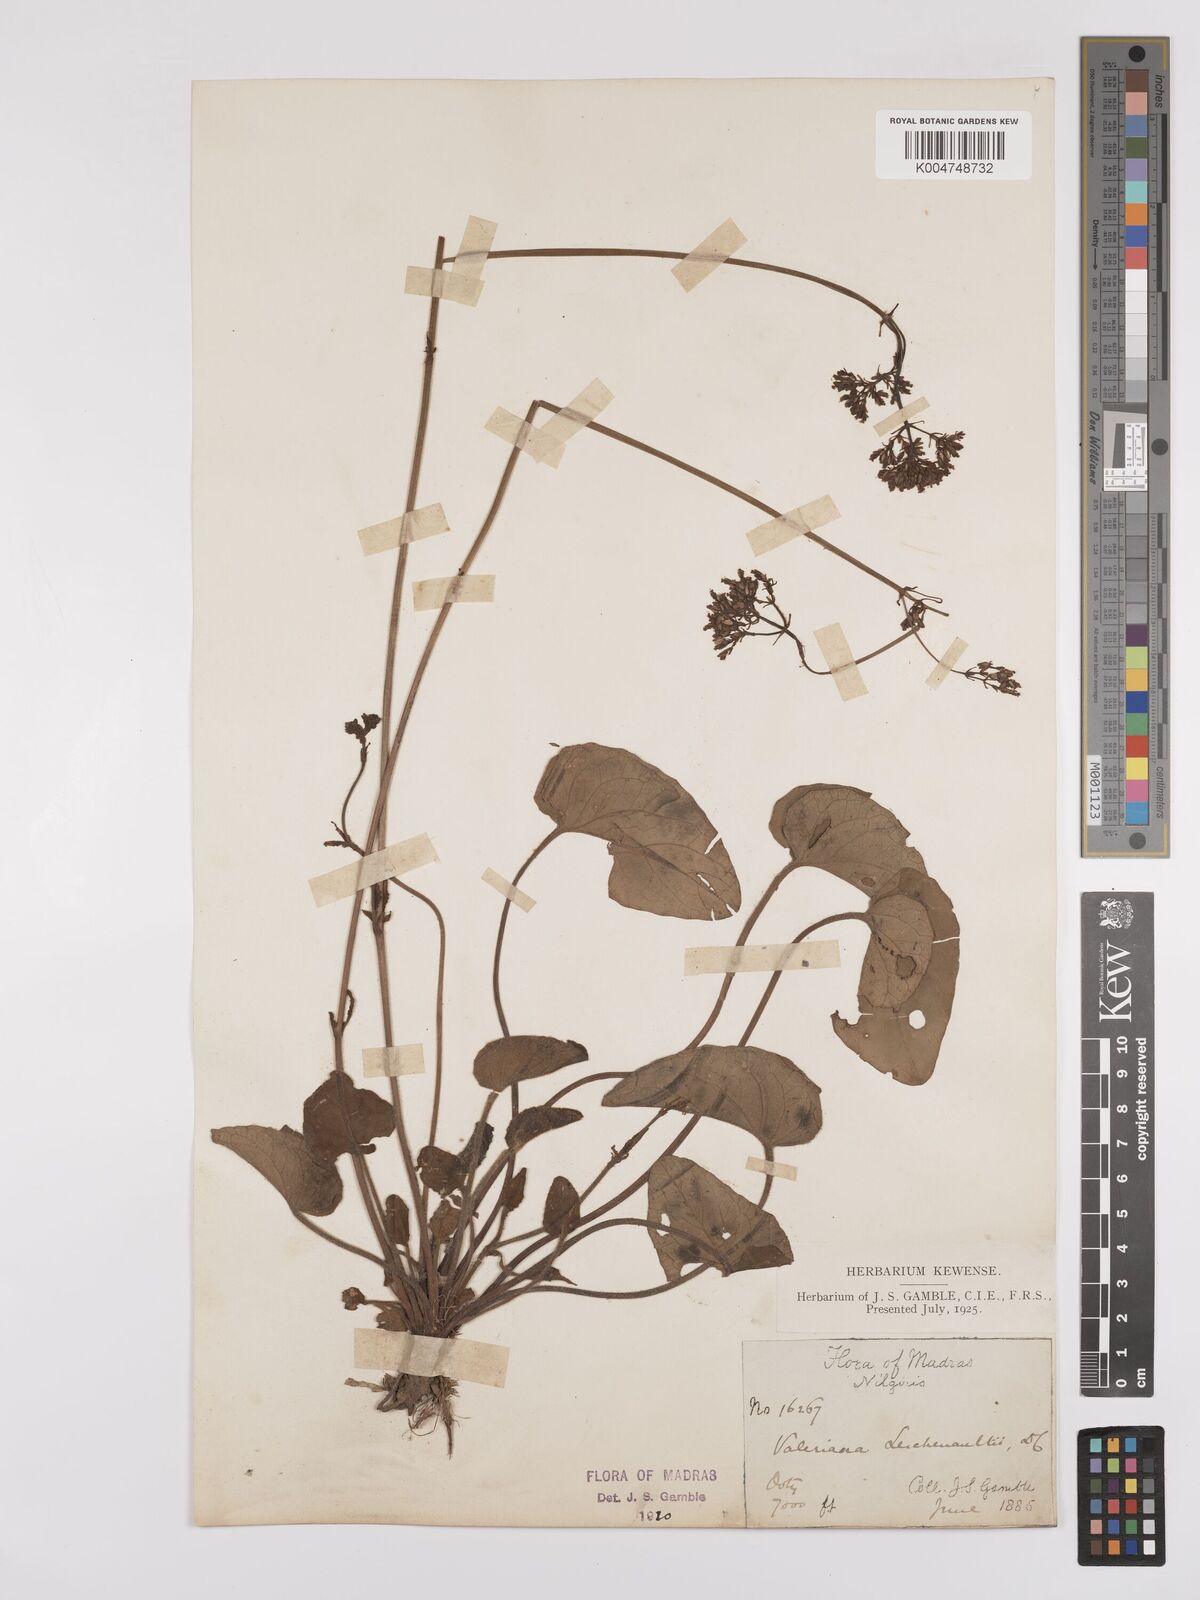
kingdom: Plantae
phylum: Tracheophyta
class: Magnoliopsida
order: Dipsacales
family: Caprifoliaceae
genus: Valeriana
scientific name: Valeriana leschenaultii
